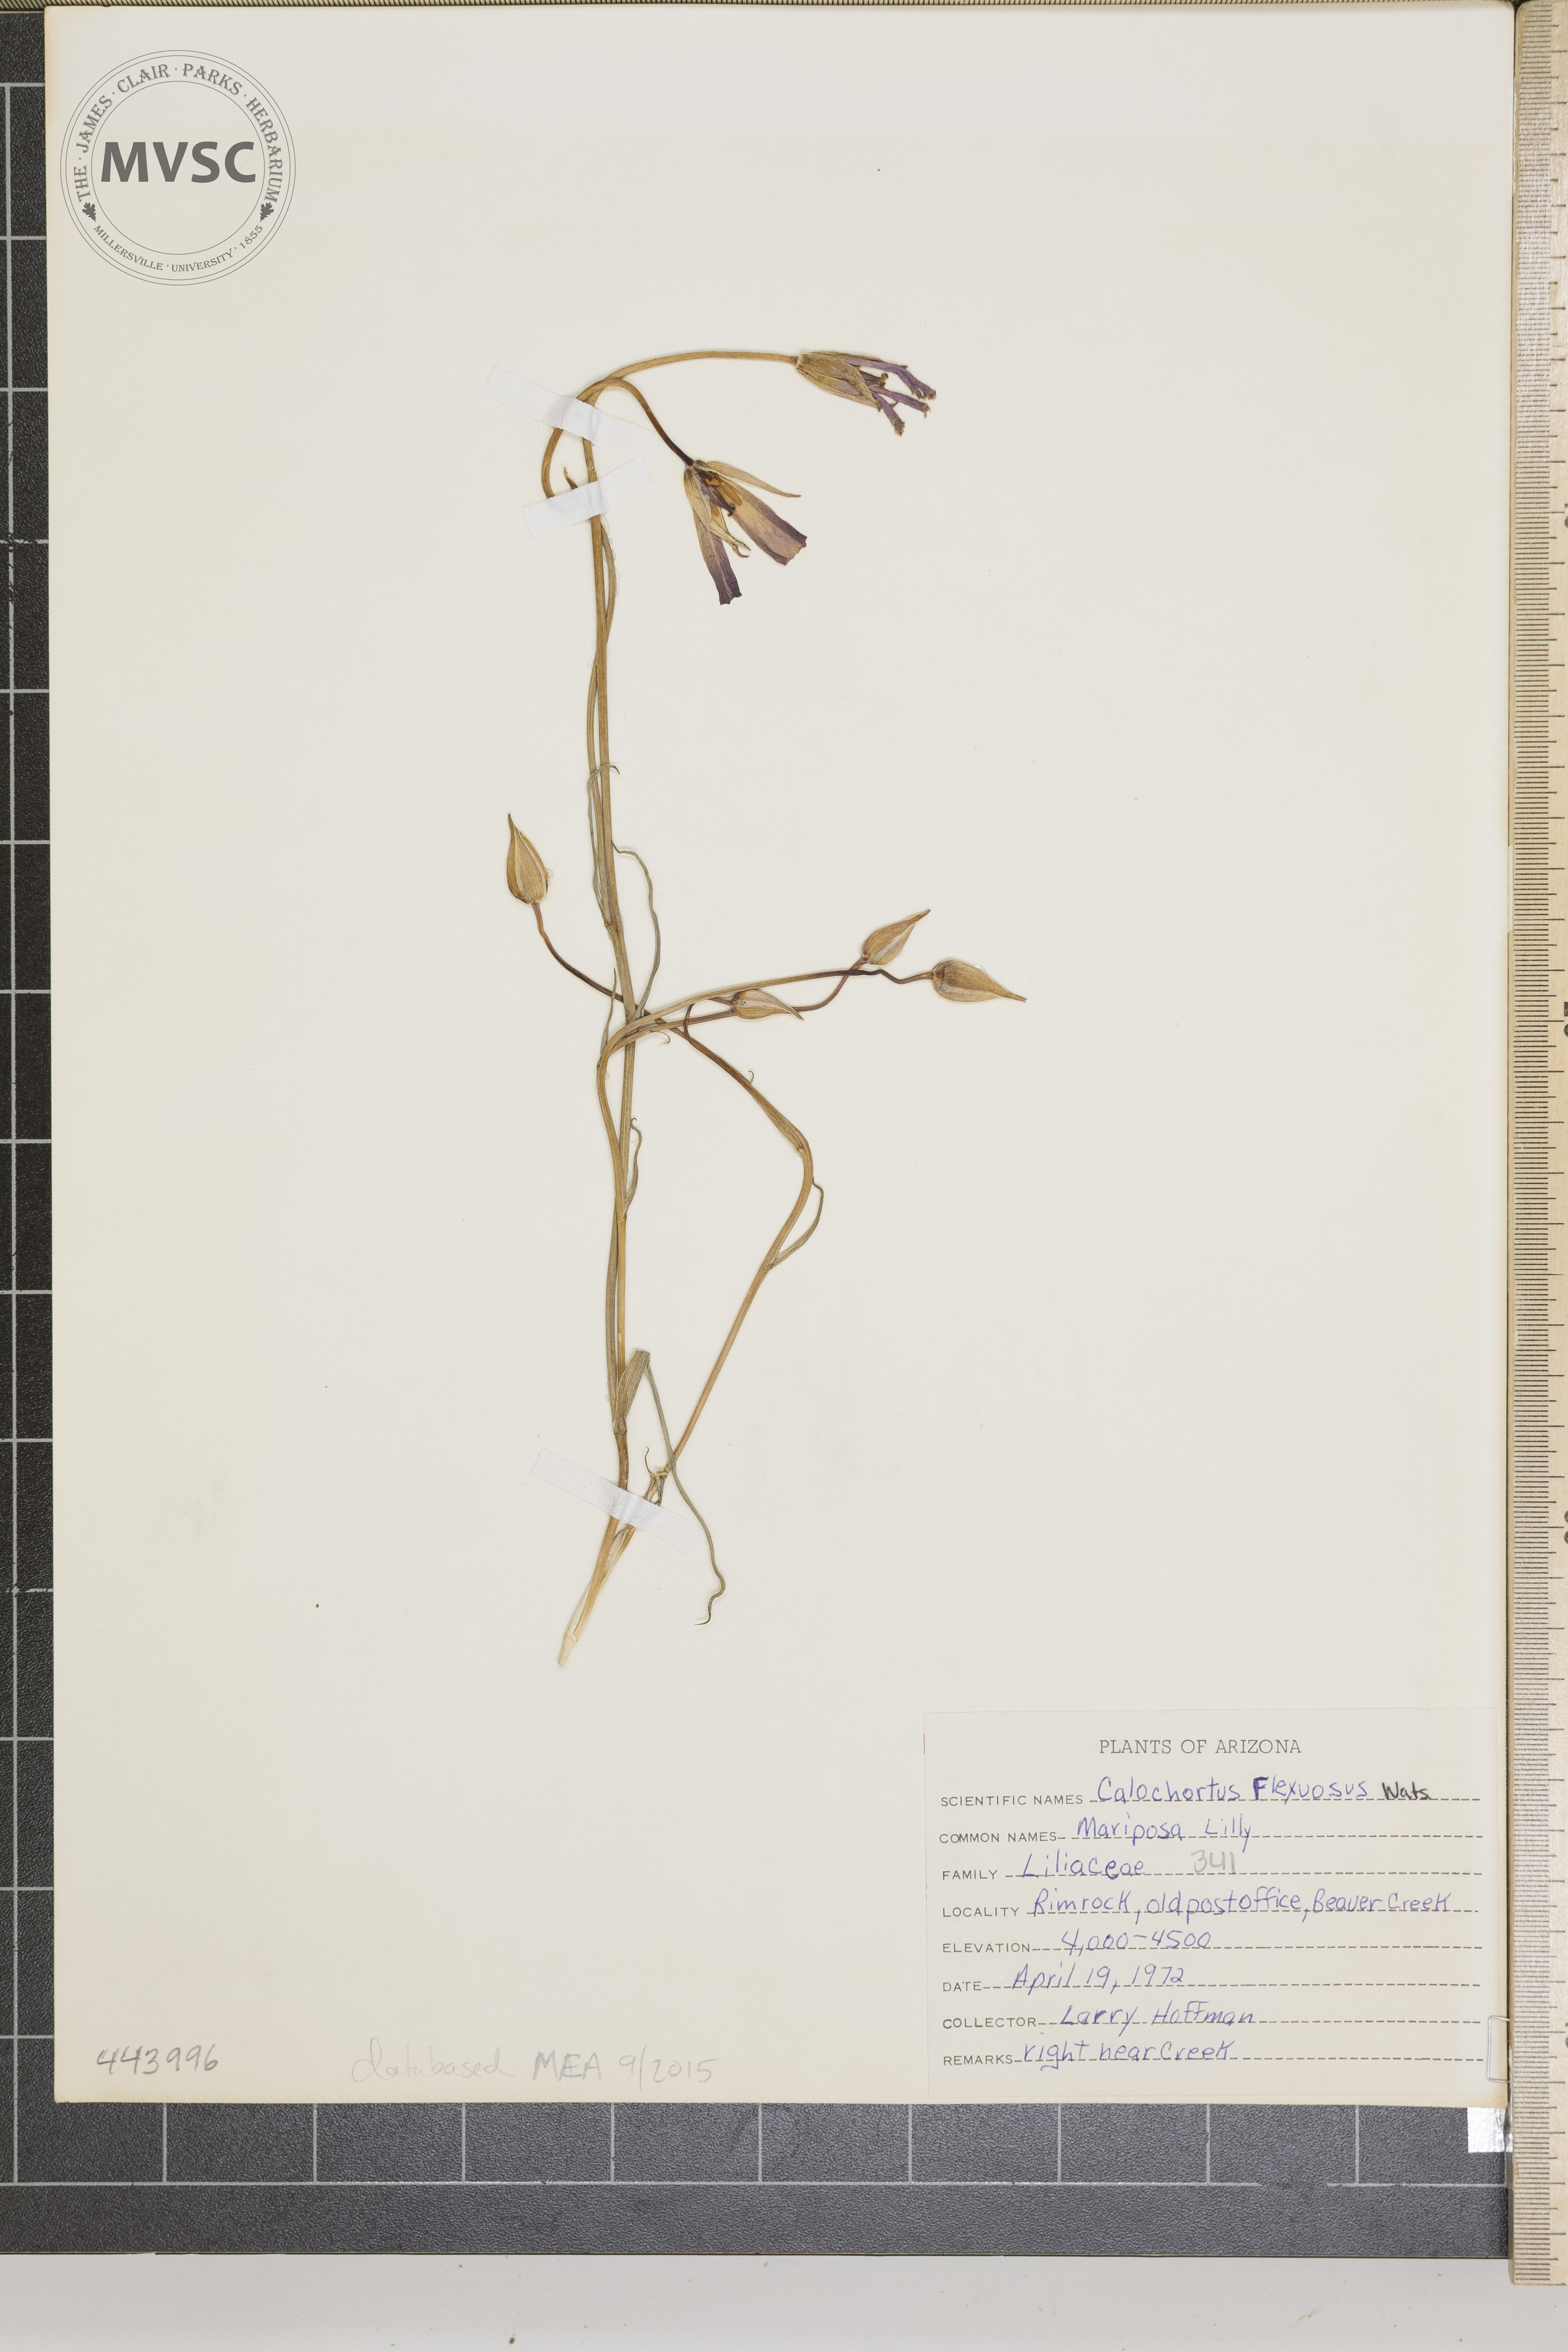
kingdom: Plantae
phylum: Tracheophyta
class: Liliopsida
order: Liliales
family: Liliaceae
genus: Calochortus
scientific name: Calochortus flexuosus
